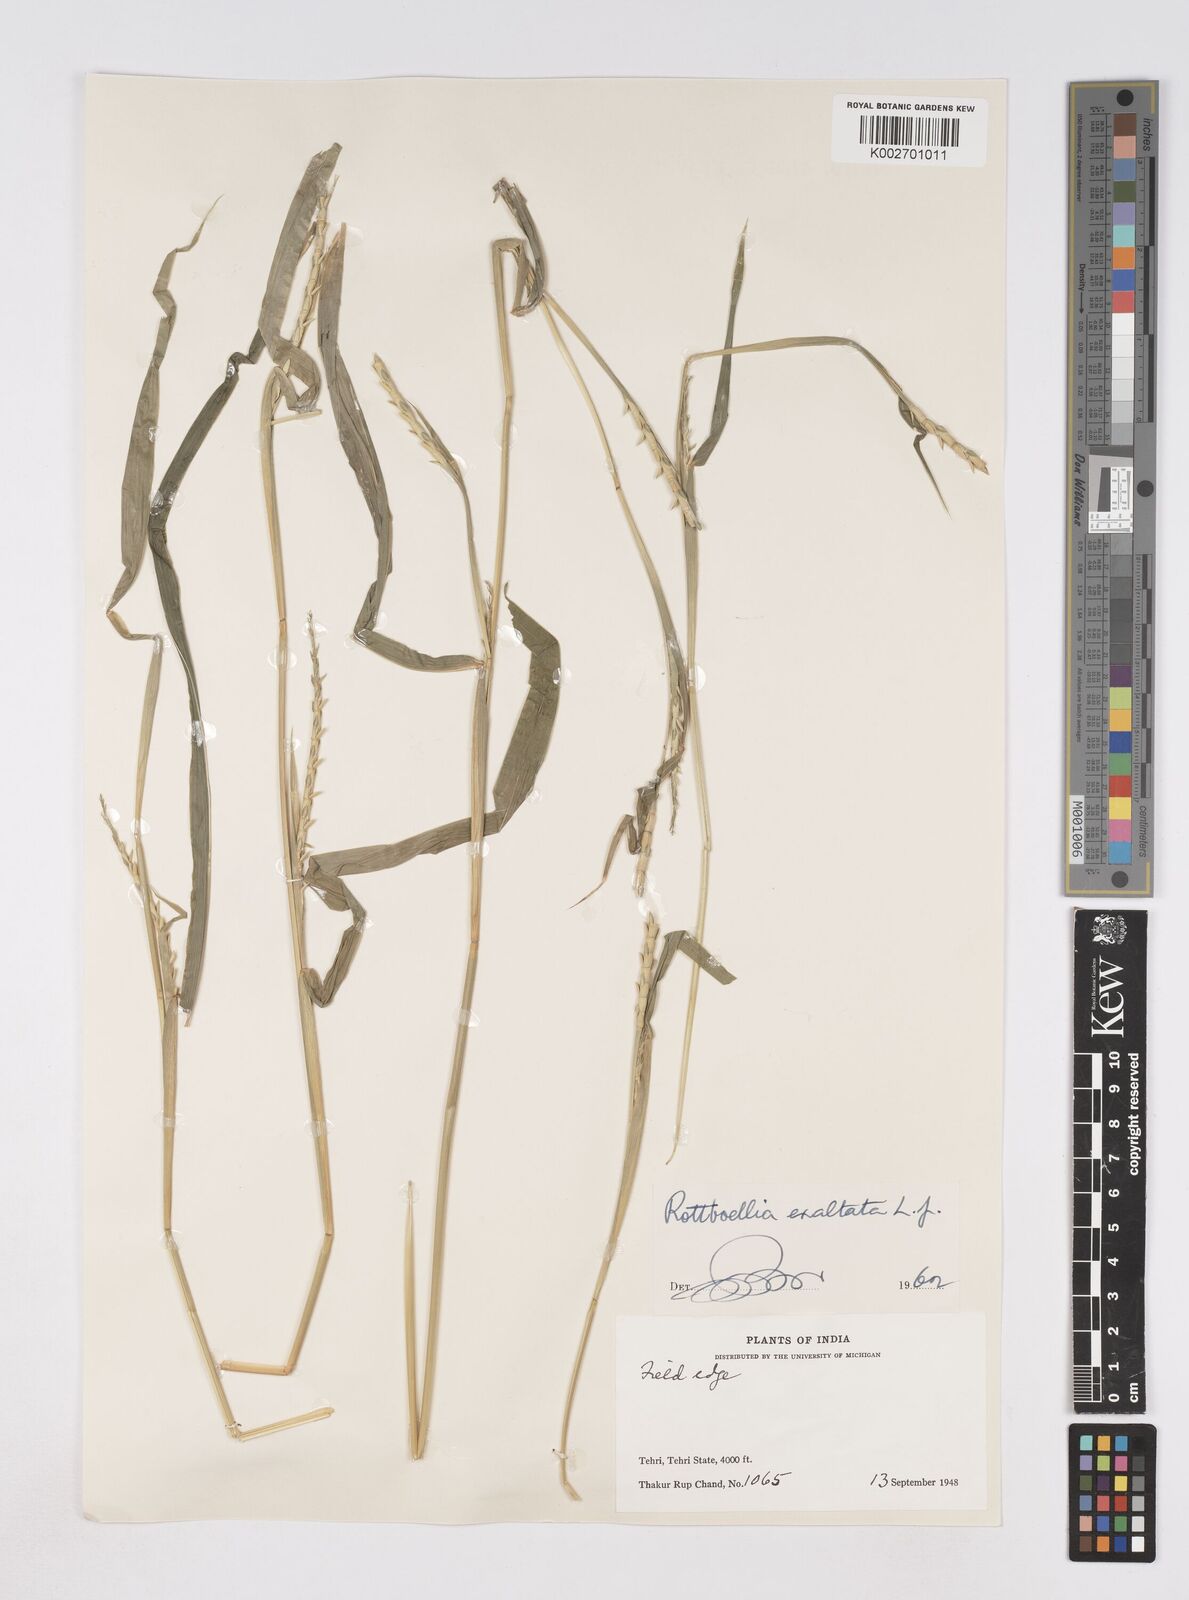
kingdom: Plantae
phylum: Tracheophyta
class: Liliopsida
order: Poales
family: Poaceae
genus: Ophiuros
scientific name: Ophiuros exaltatus
